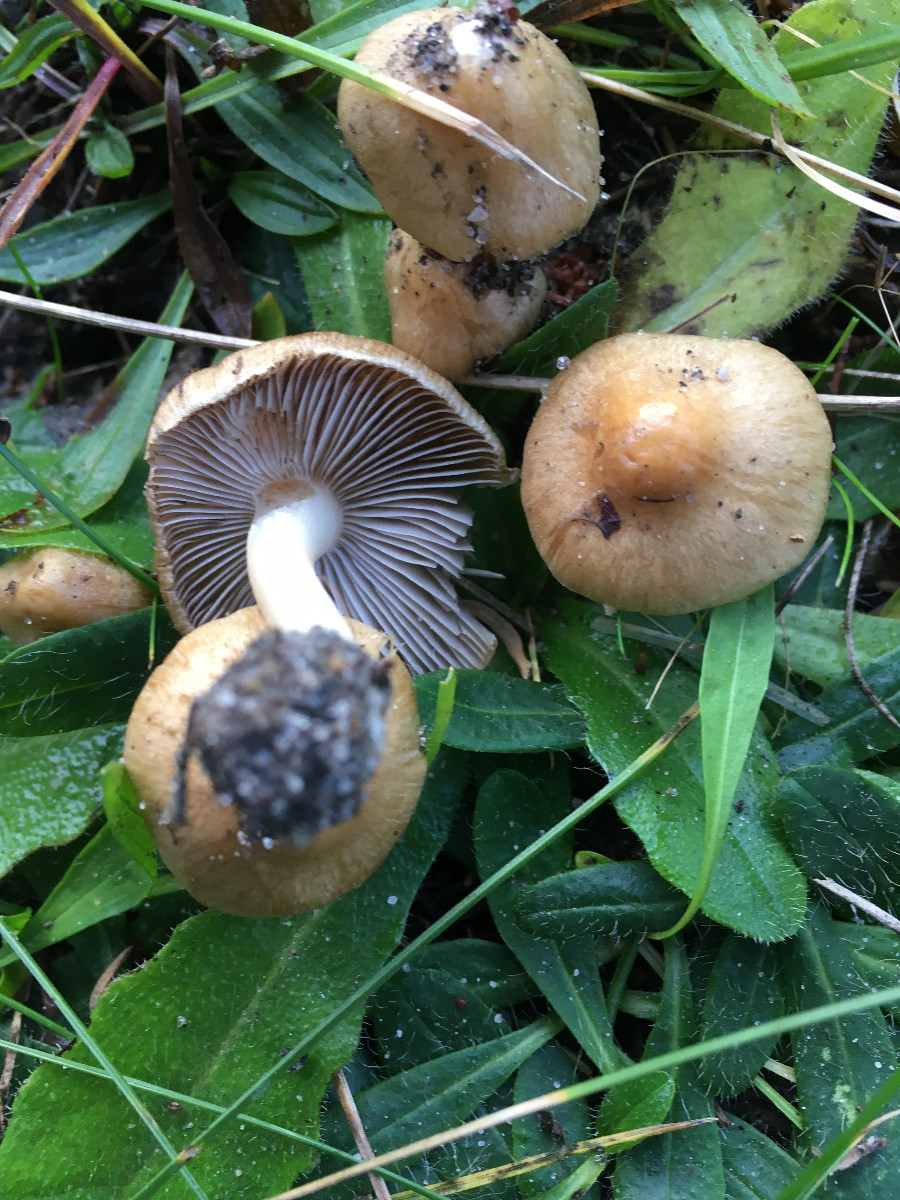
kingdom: Fungi
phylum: Basidiomycota
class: Agaricomycetes
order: Agaricales
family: Inocybaceae
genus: Inocybe
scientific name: Inocybe
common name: trævlhat
